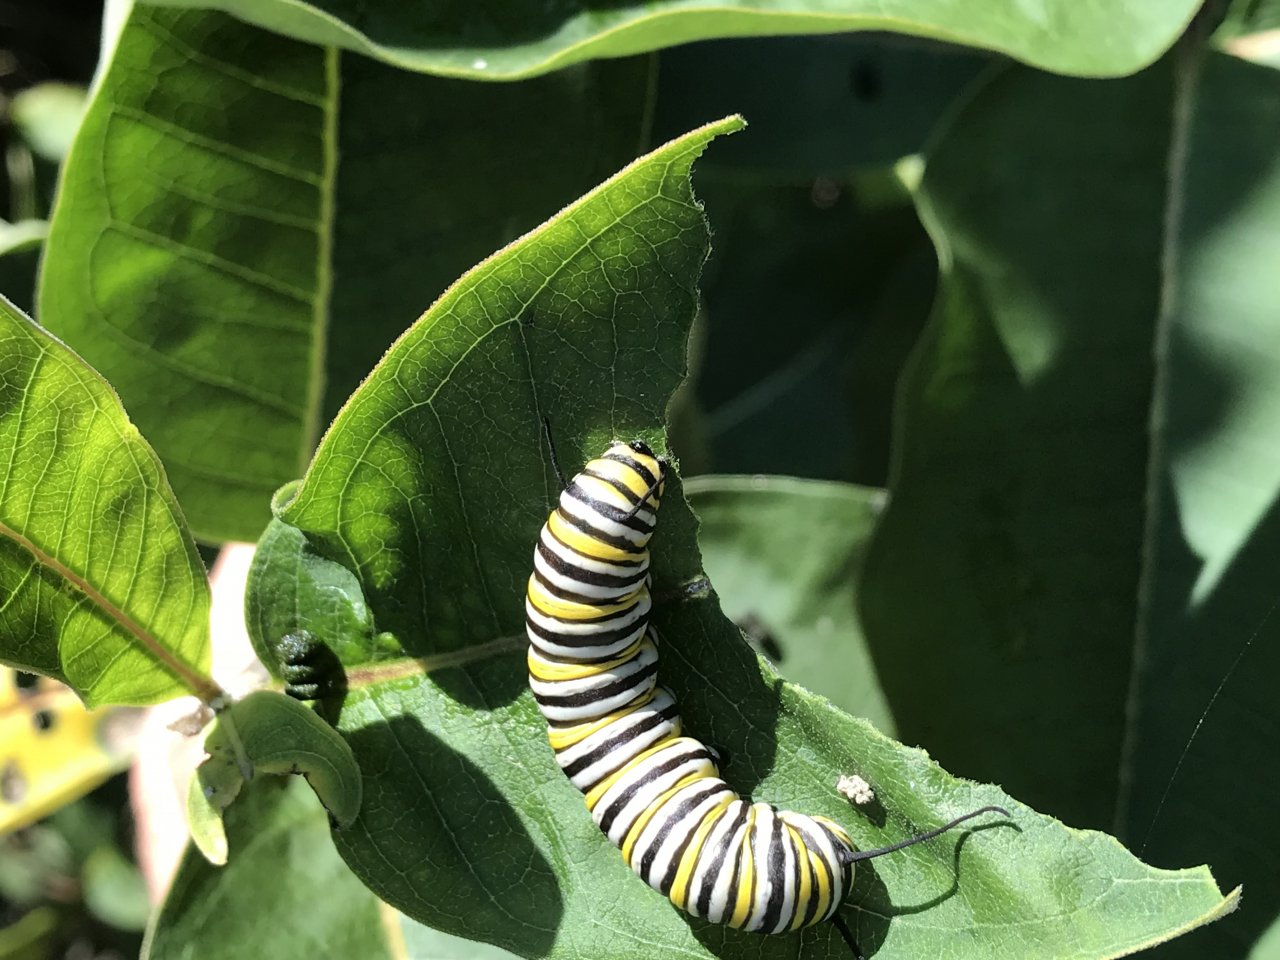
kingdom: Animalia
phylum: Arthropoda
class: Insecta
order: Lepidoptera
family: Nymphalidae
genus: Danaus
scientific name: Danaus plexippus
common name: Monarch
